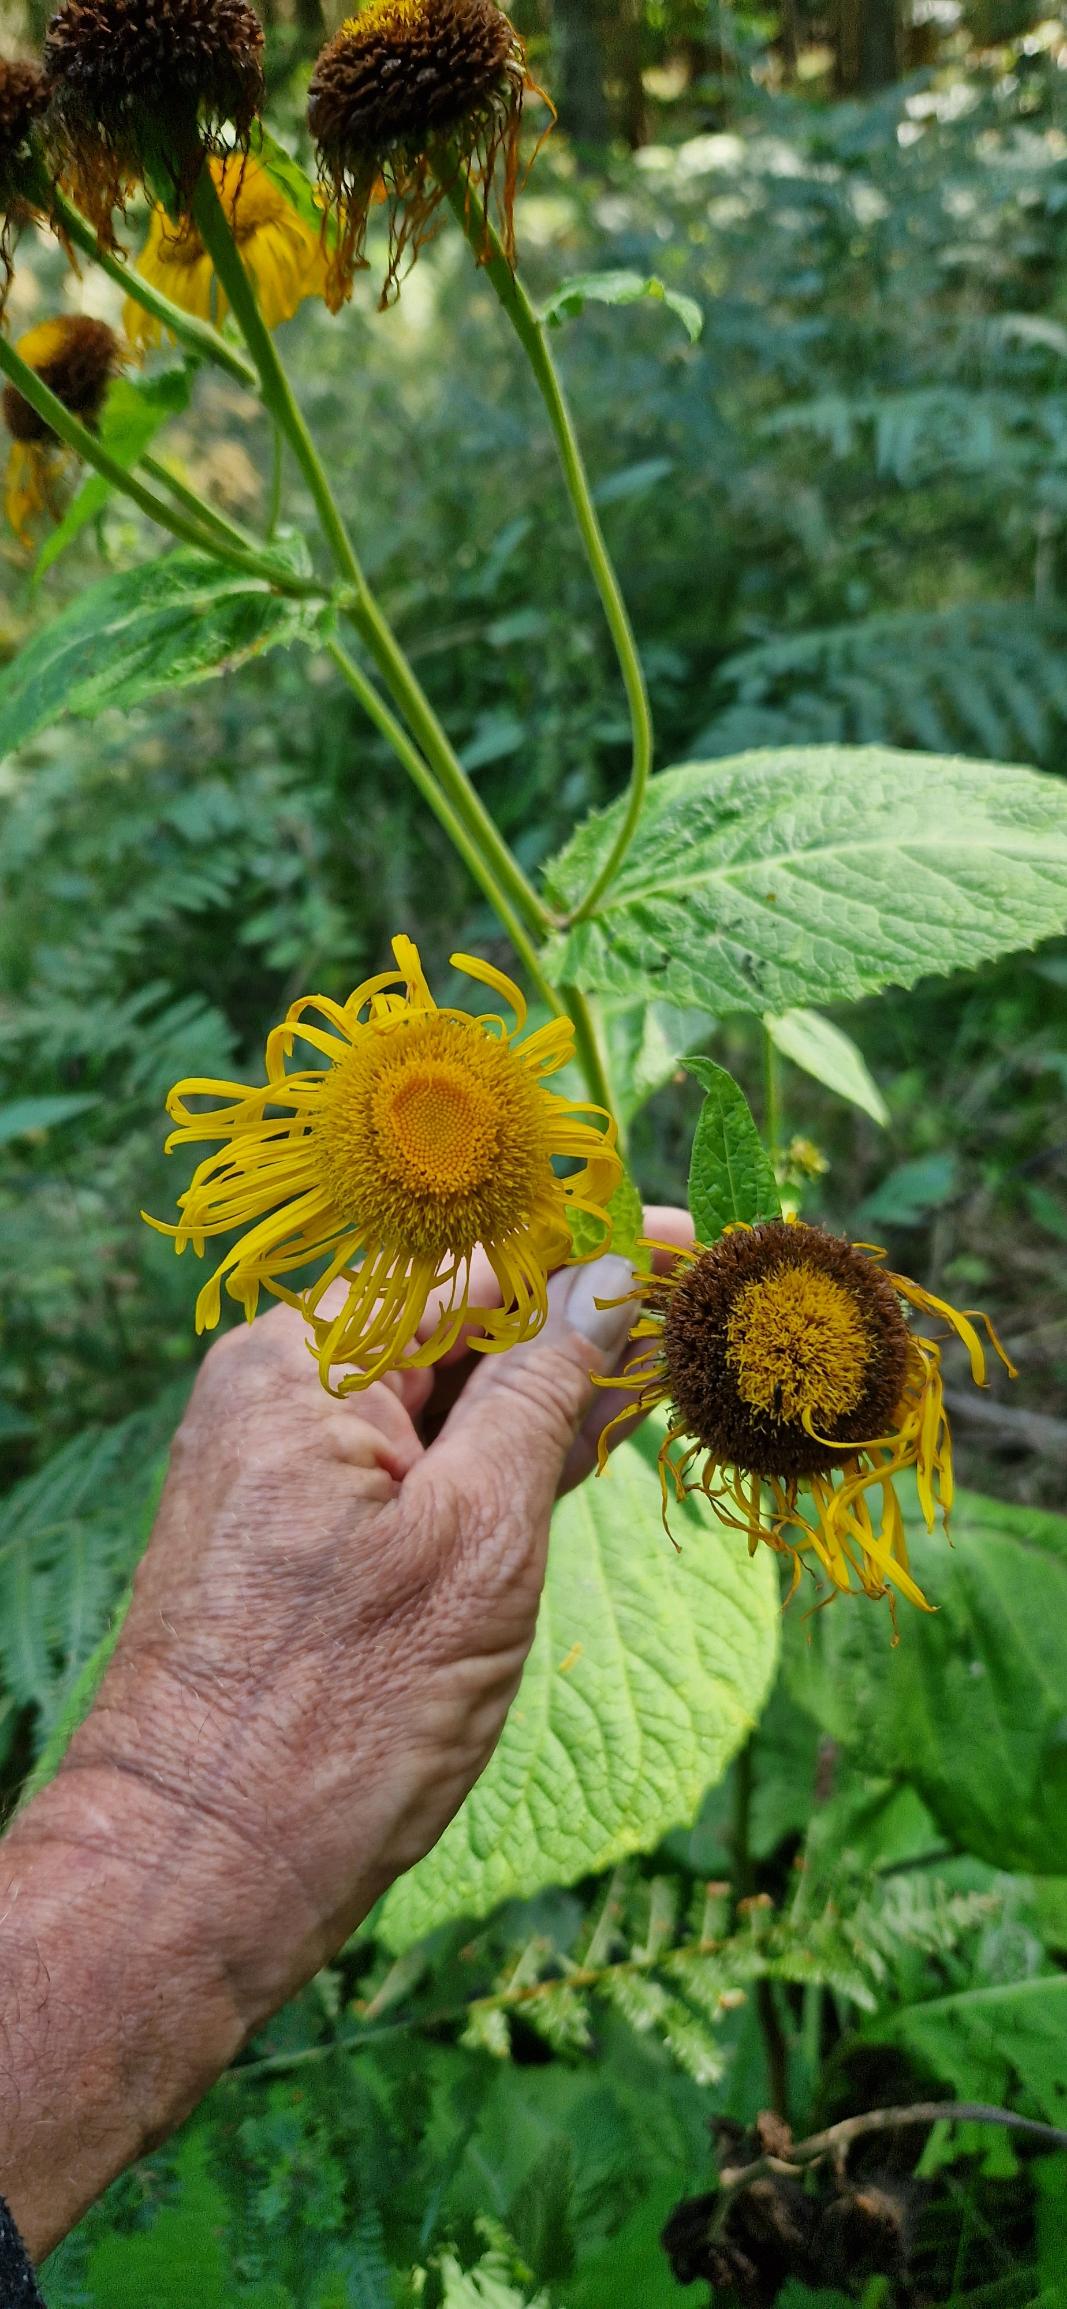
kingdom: Plantae
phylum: Tracheophyta
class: Magnoliopsida
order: Asterales
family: Asteraceae
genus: Telekia
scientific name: Telekia speciosa
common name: Tusindstråle
